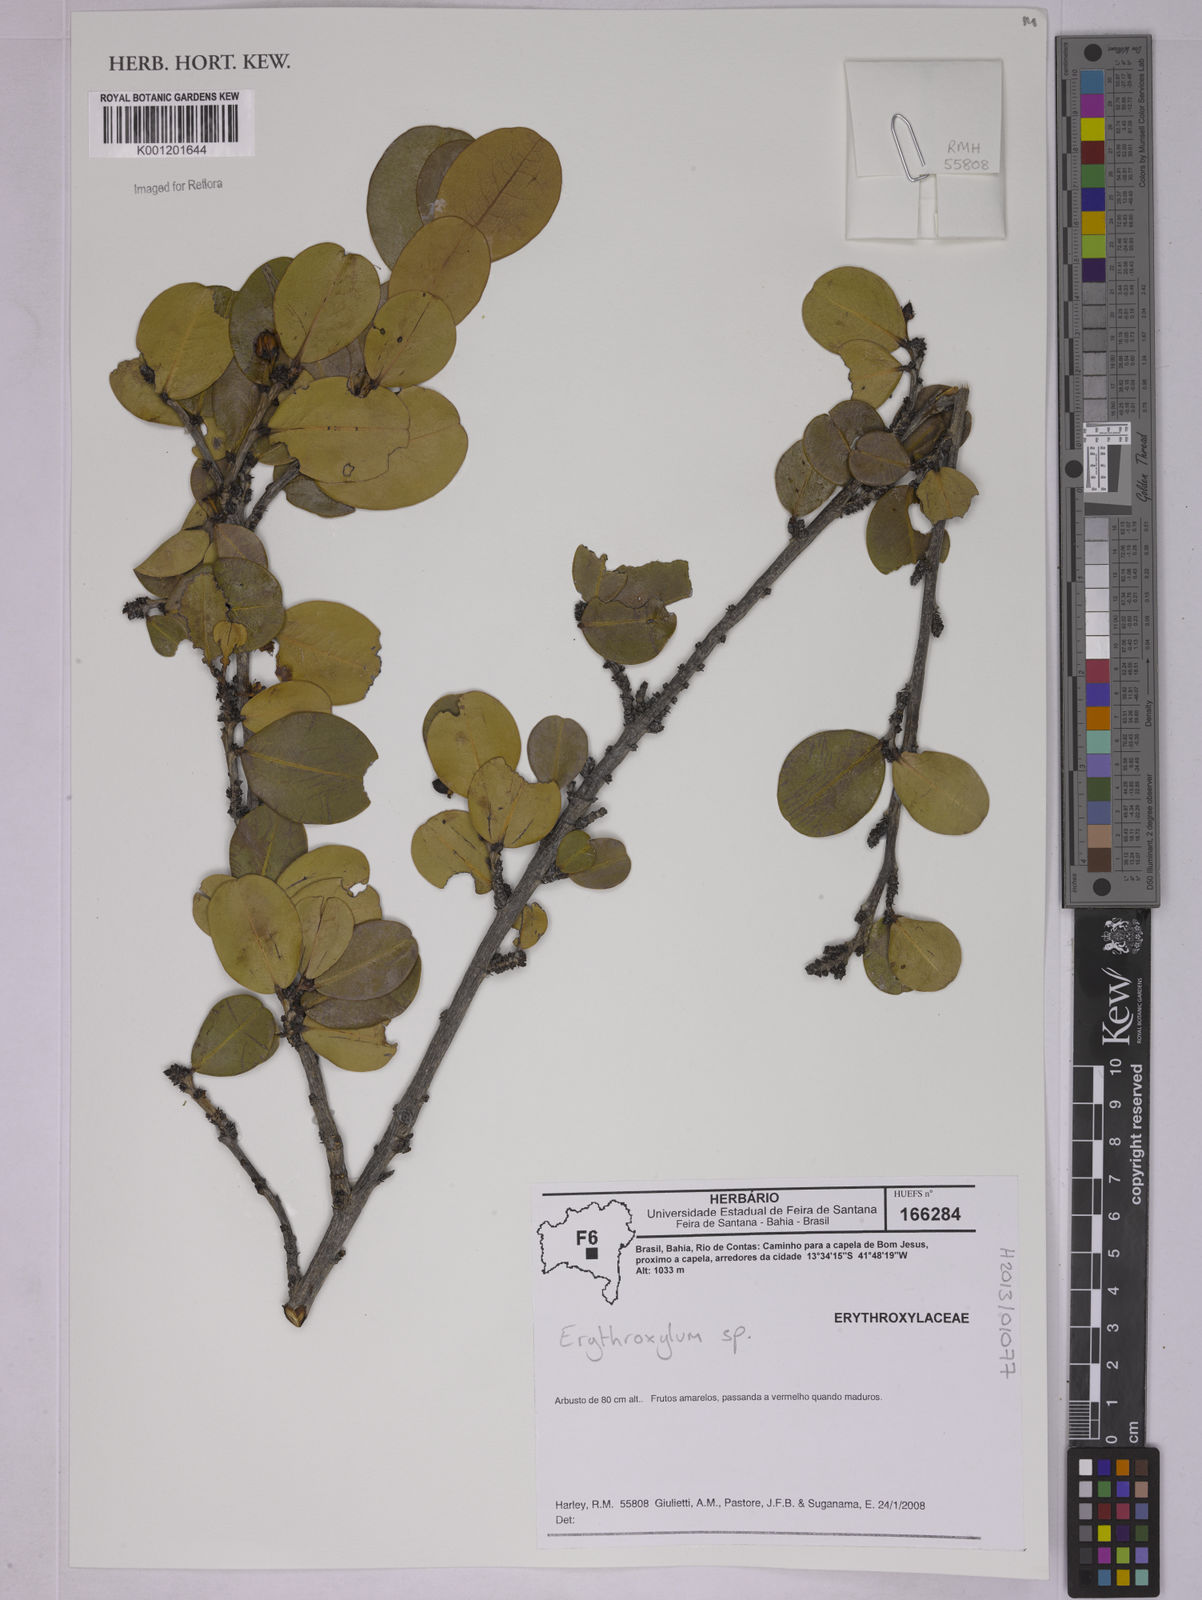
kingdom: Plantae
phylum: Tracheophyta
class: Magnoliopsida
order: Malpighiales
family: Erythroxylaceae
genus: Erythroxylum
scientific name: Erythroxylum
